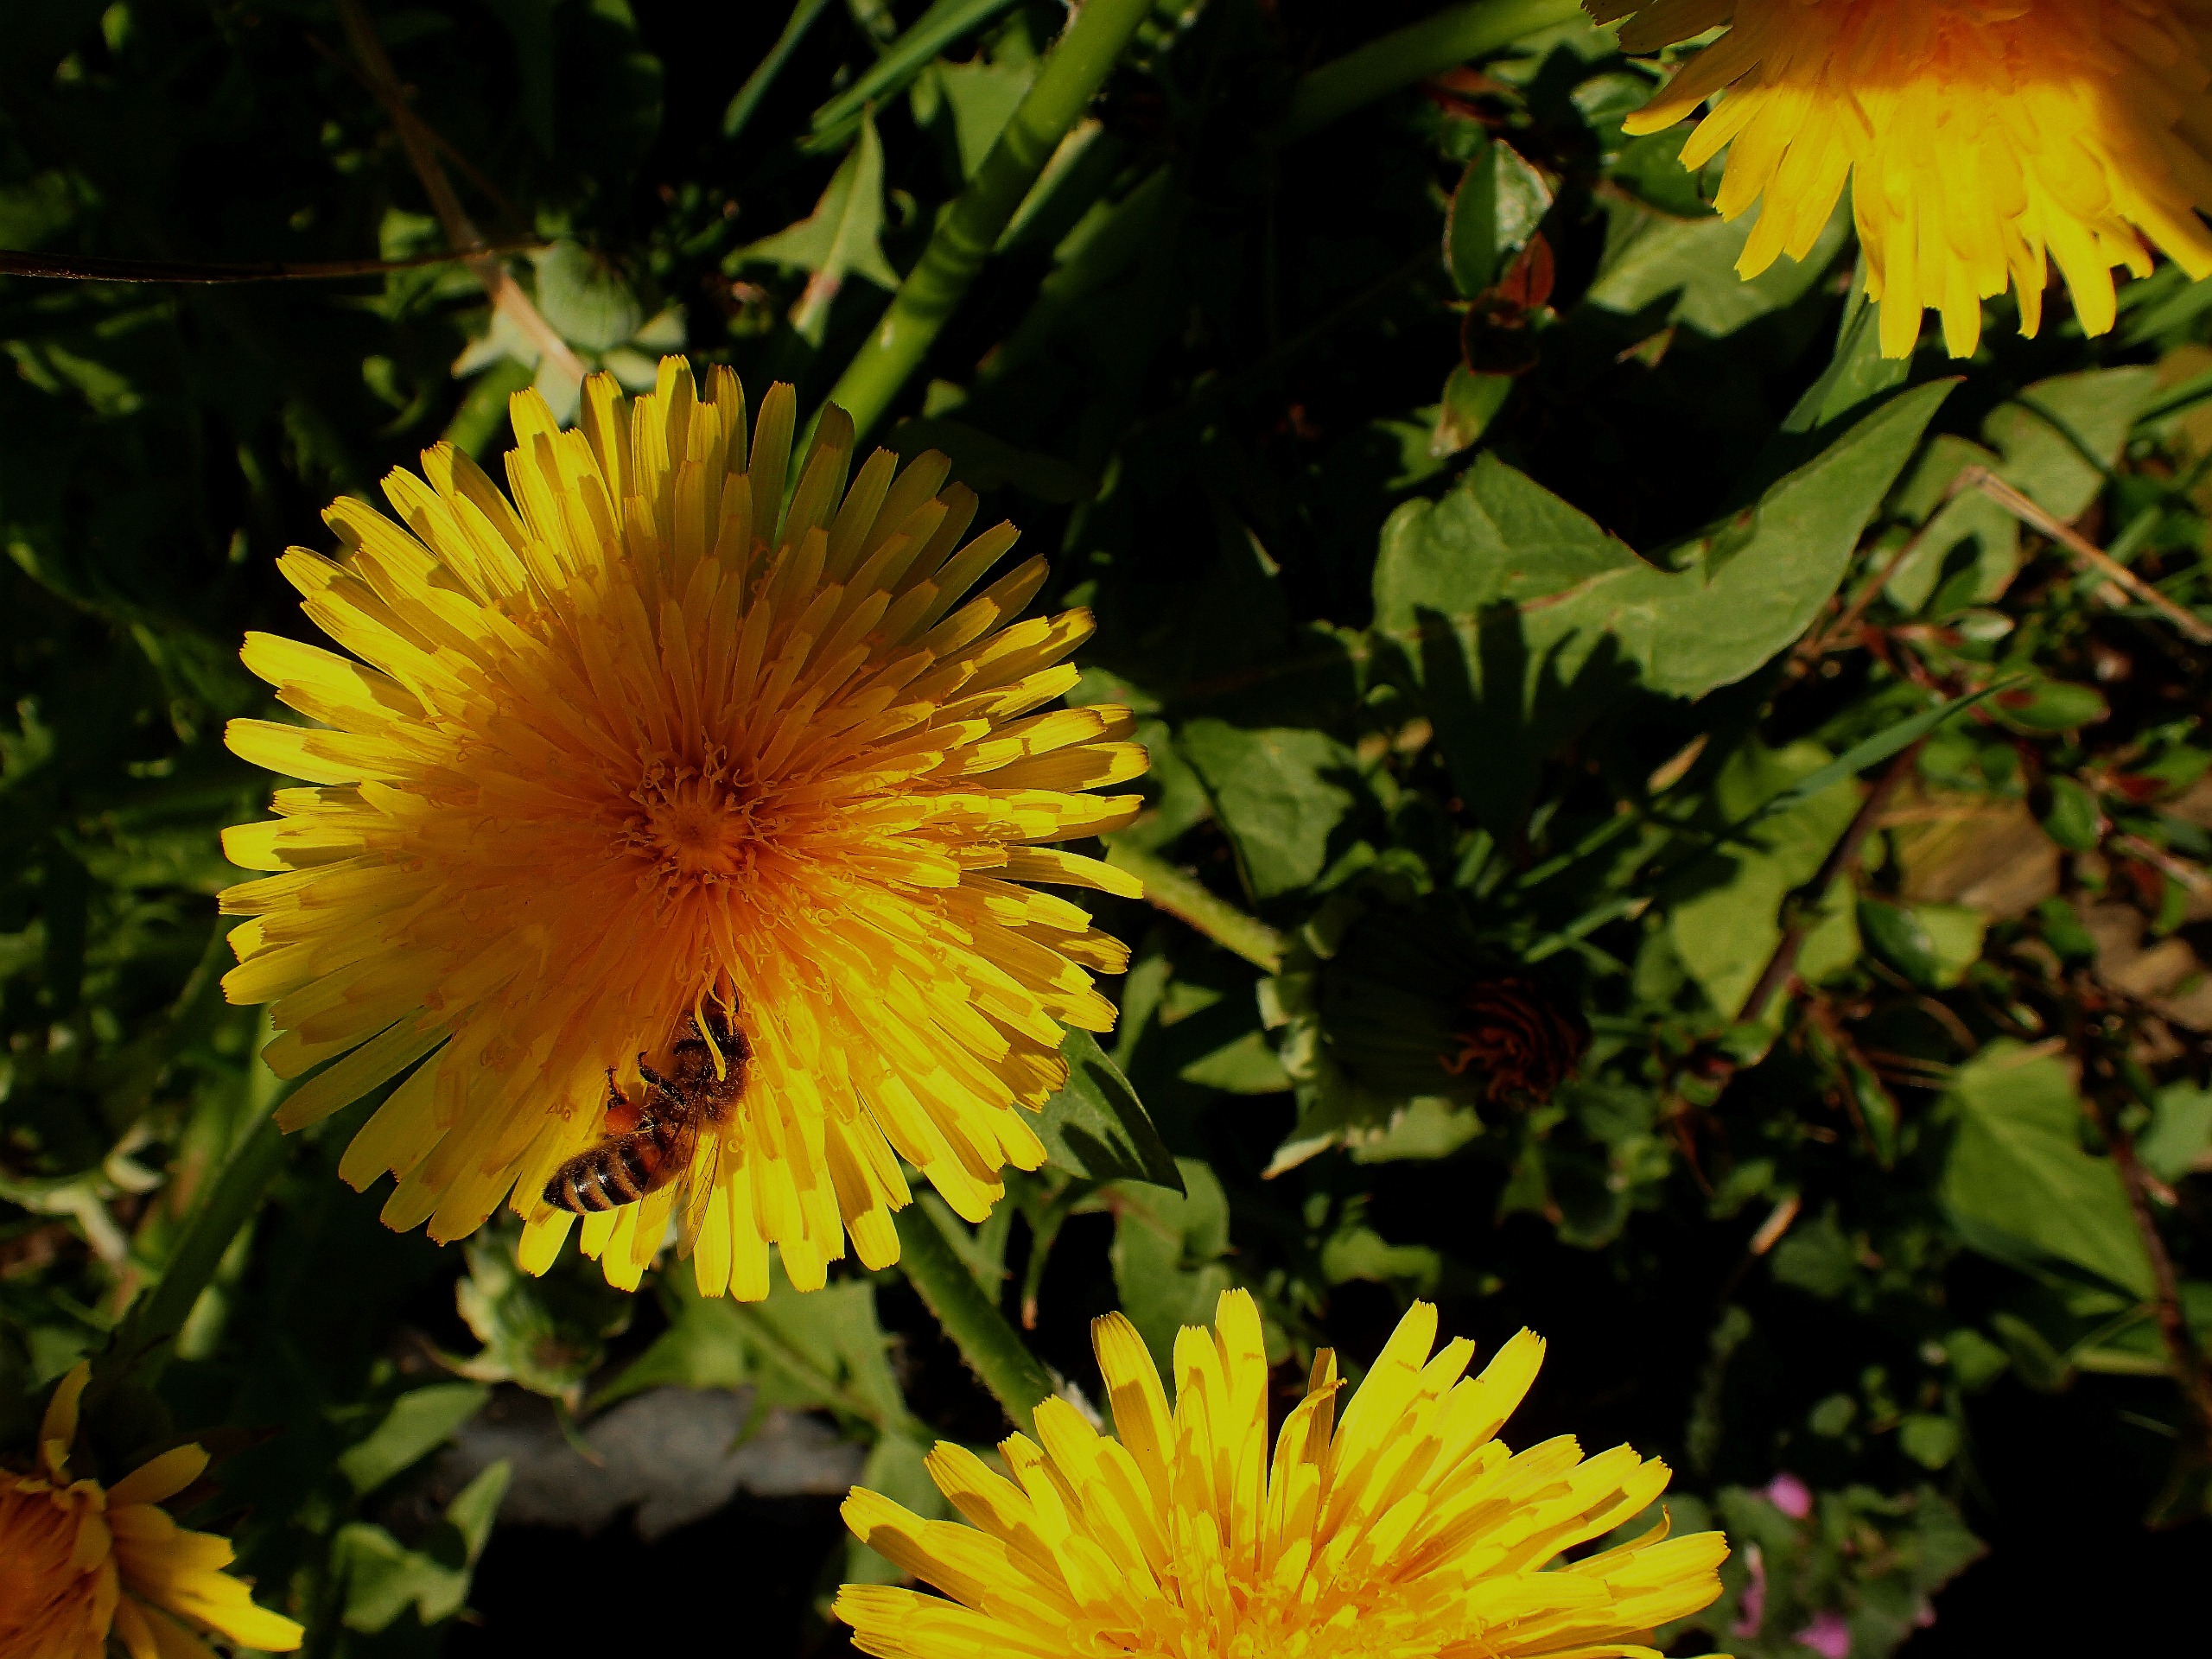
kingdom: Animalia
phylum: Arthropoda
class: Insecta
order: Hymenoptera
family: Apidae
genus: Apis
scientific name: Apis mellifera
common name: Honningbi
